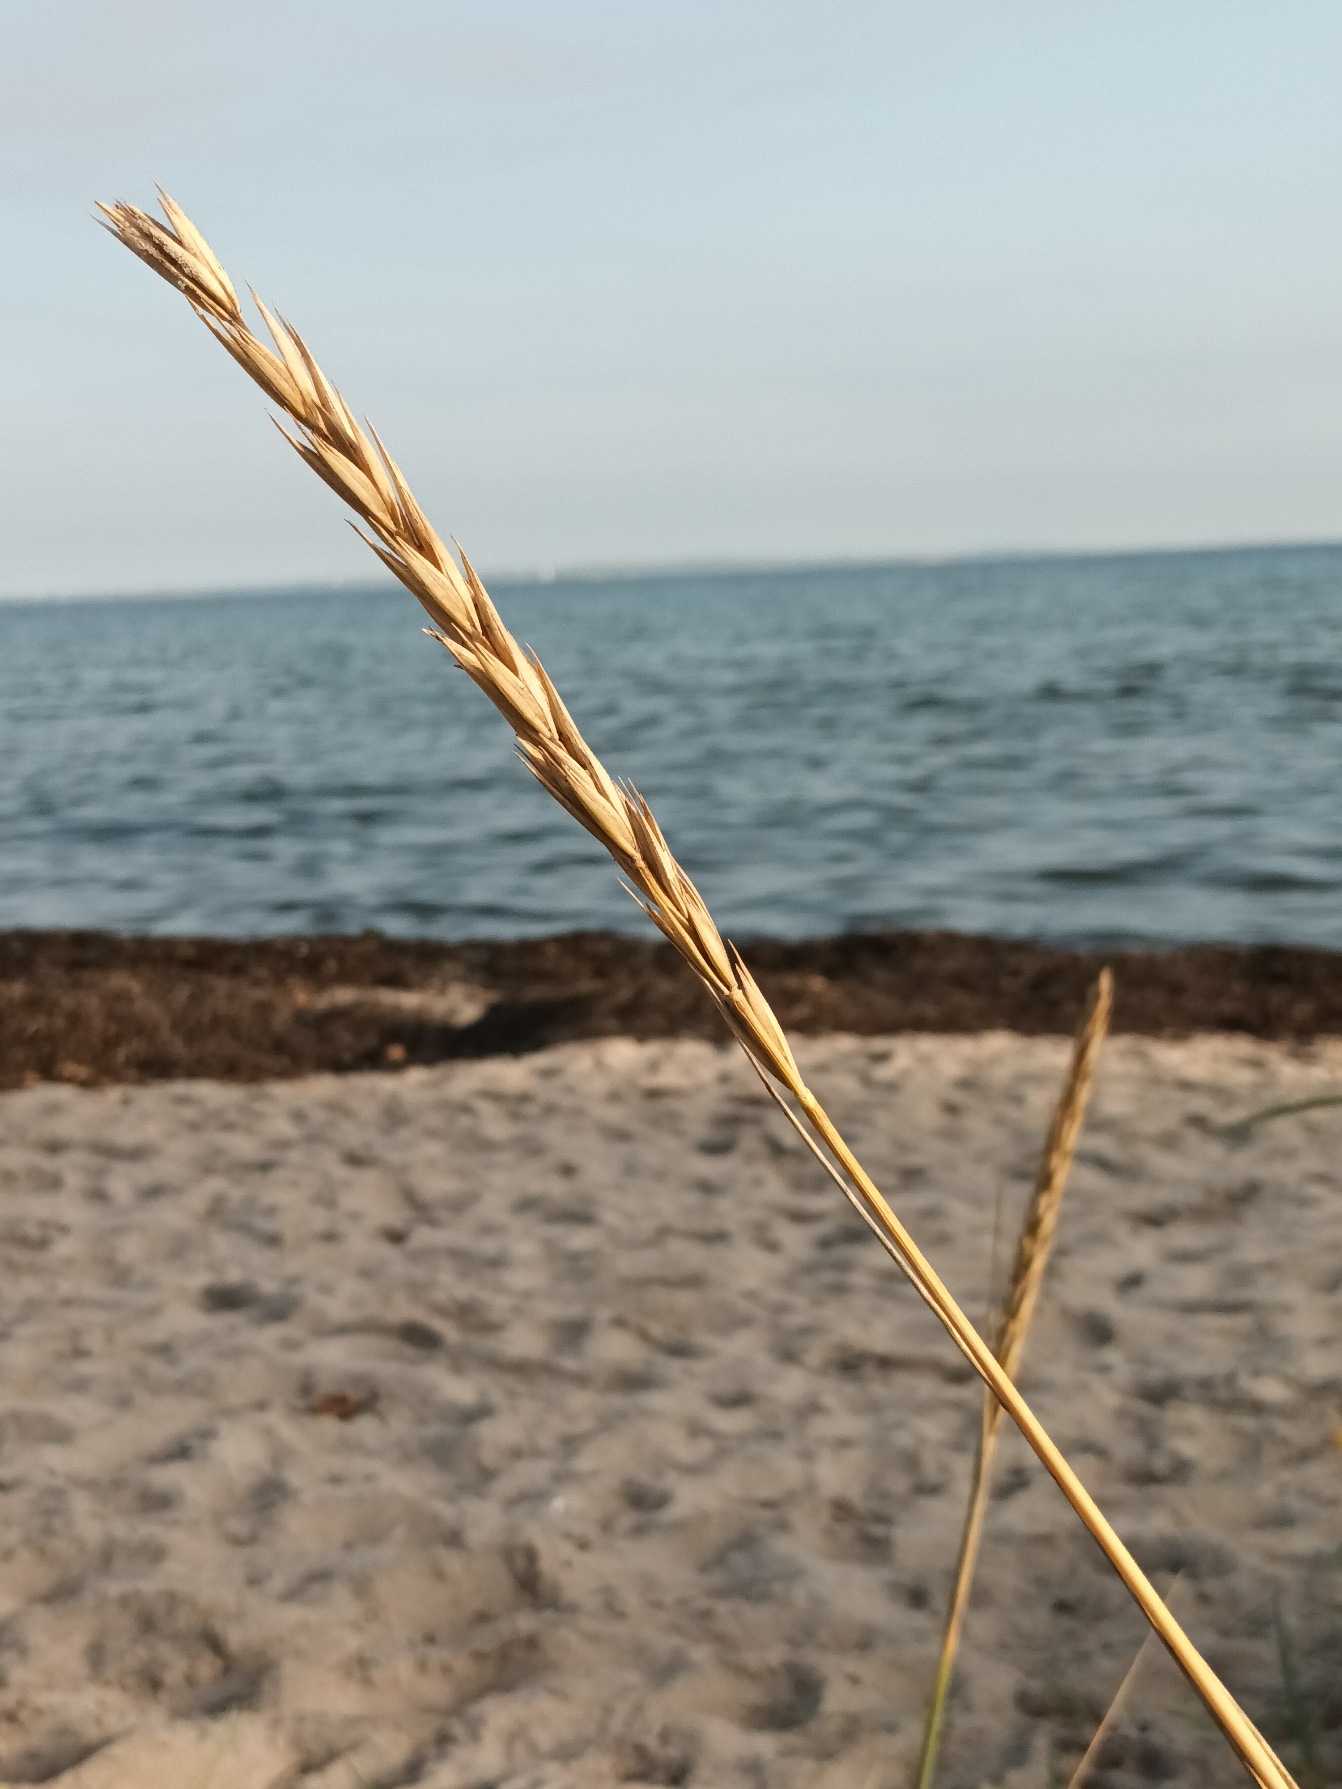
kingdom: Plantae
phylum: Tracheophyta
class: Liliopsida
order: Poales
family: Poaceae
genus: Leymus
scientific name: Leymus arenarius
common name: Marehalm
